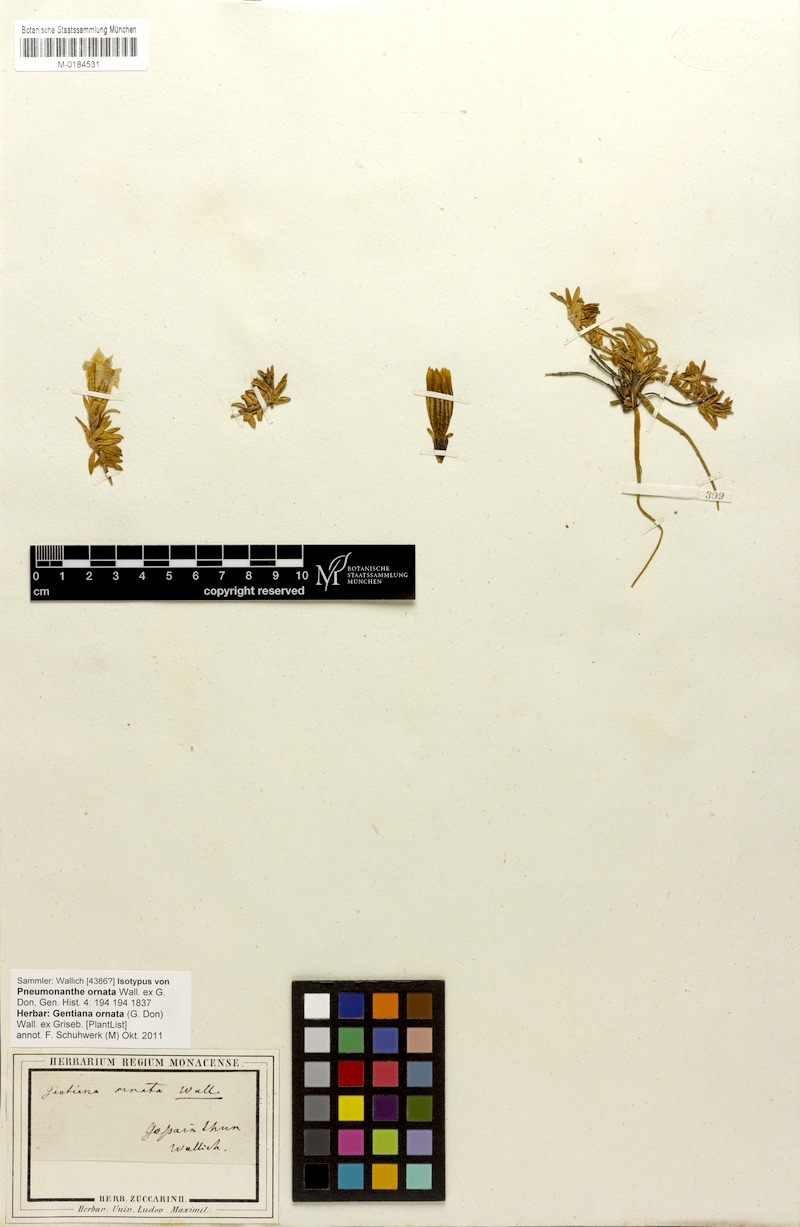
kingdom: Plantae
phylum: Tracheophyta
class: Magnoliopsida
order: Gentianales
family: Gentianaceae
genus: Gentiana
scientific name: Gentiana ornata
